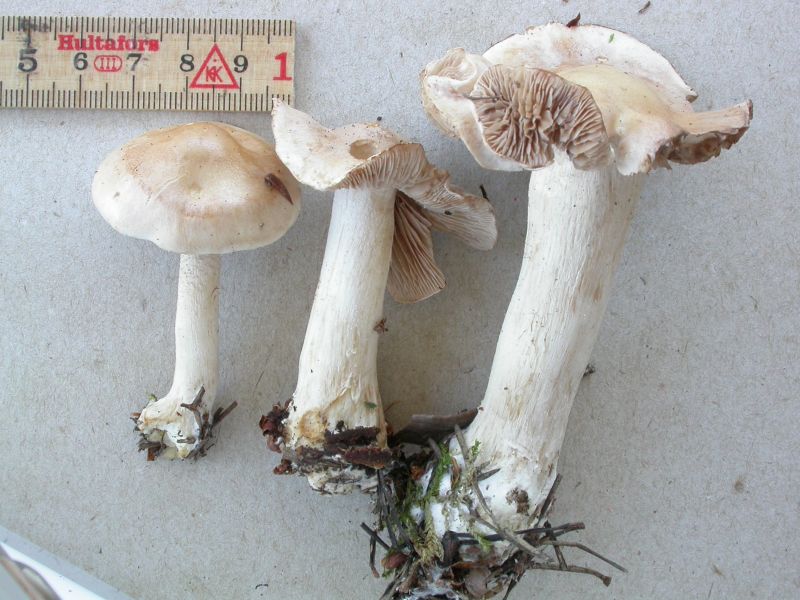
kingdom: Fungi
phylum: Basidiomycota
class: Agaricomycetes
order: Agaricales
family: Hymenogastraceae
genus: Hebeloma
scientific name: Hebeloma incarnatulum
